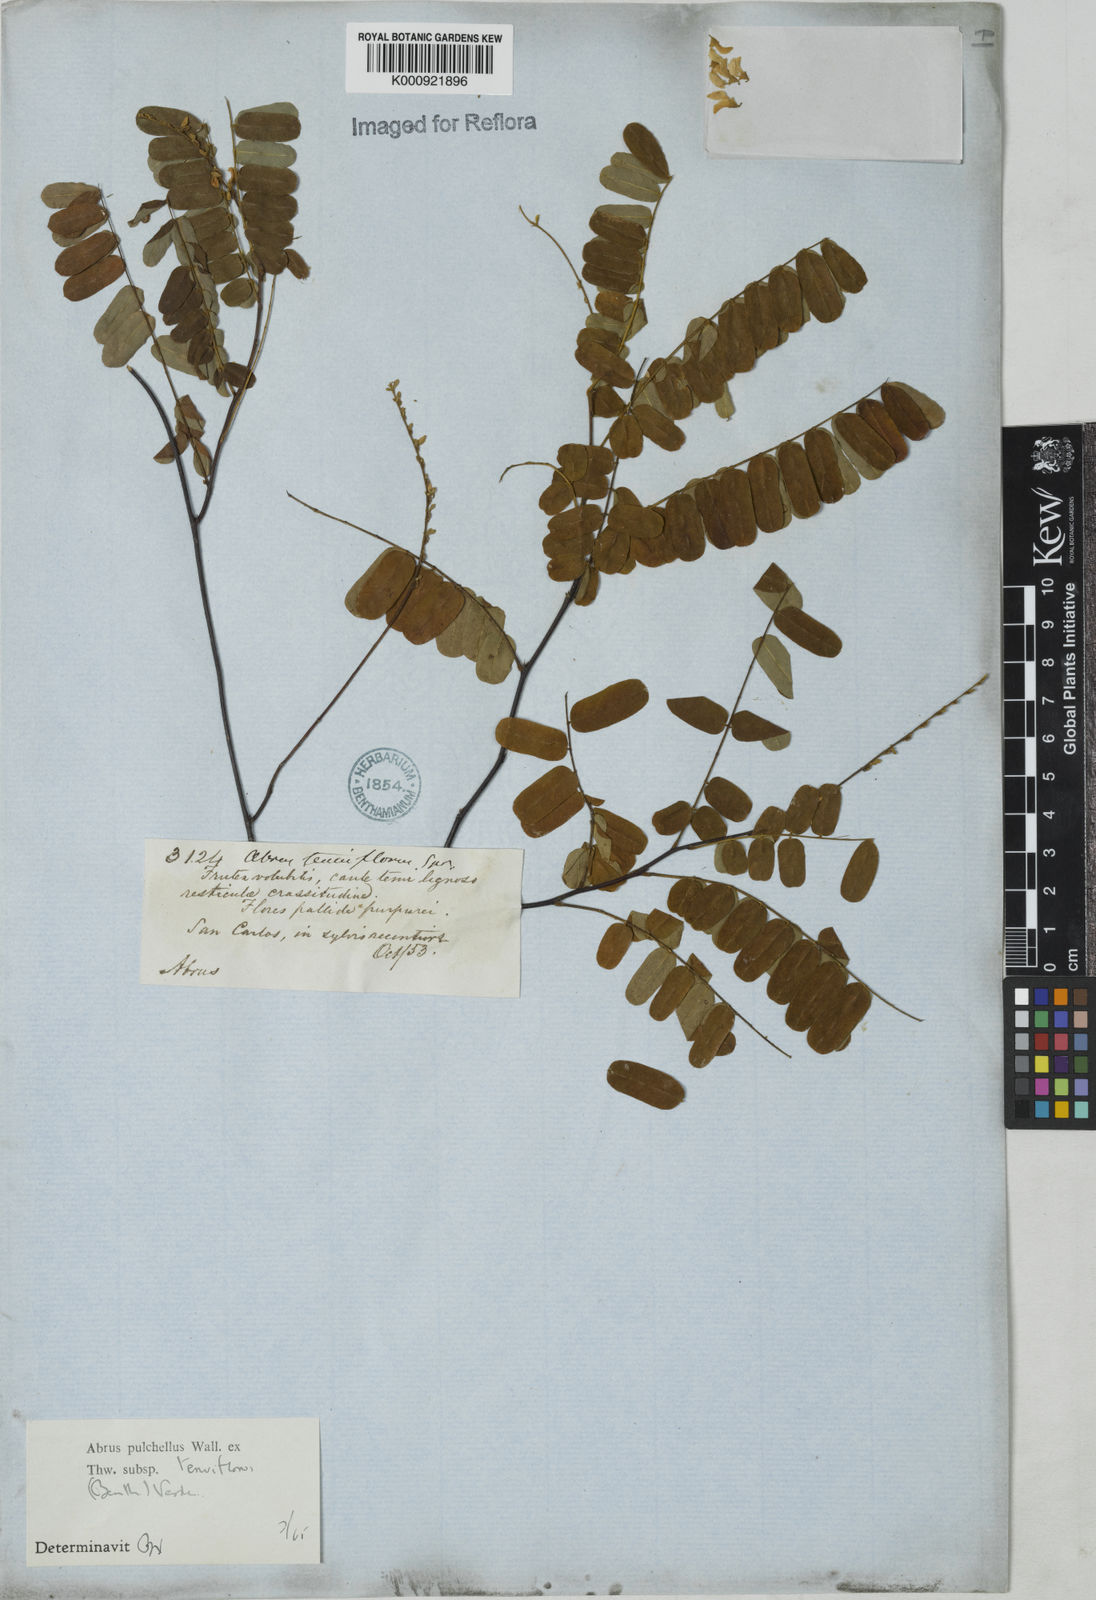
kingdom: Plantae
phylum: Tracheophyta
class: Magnoliopsida
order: Fabales
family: Fabaceae
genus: Abrus
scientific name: Abrus melanospermus
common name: Licorice-root
